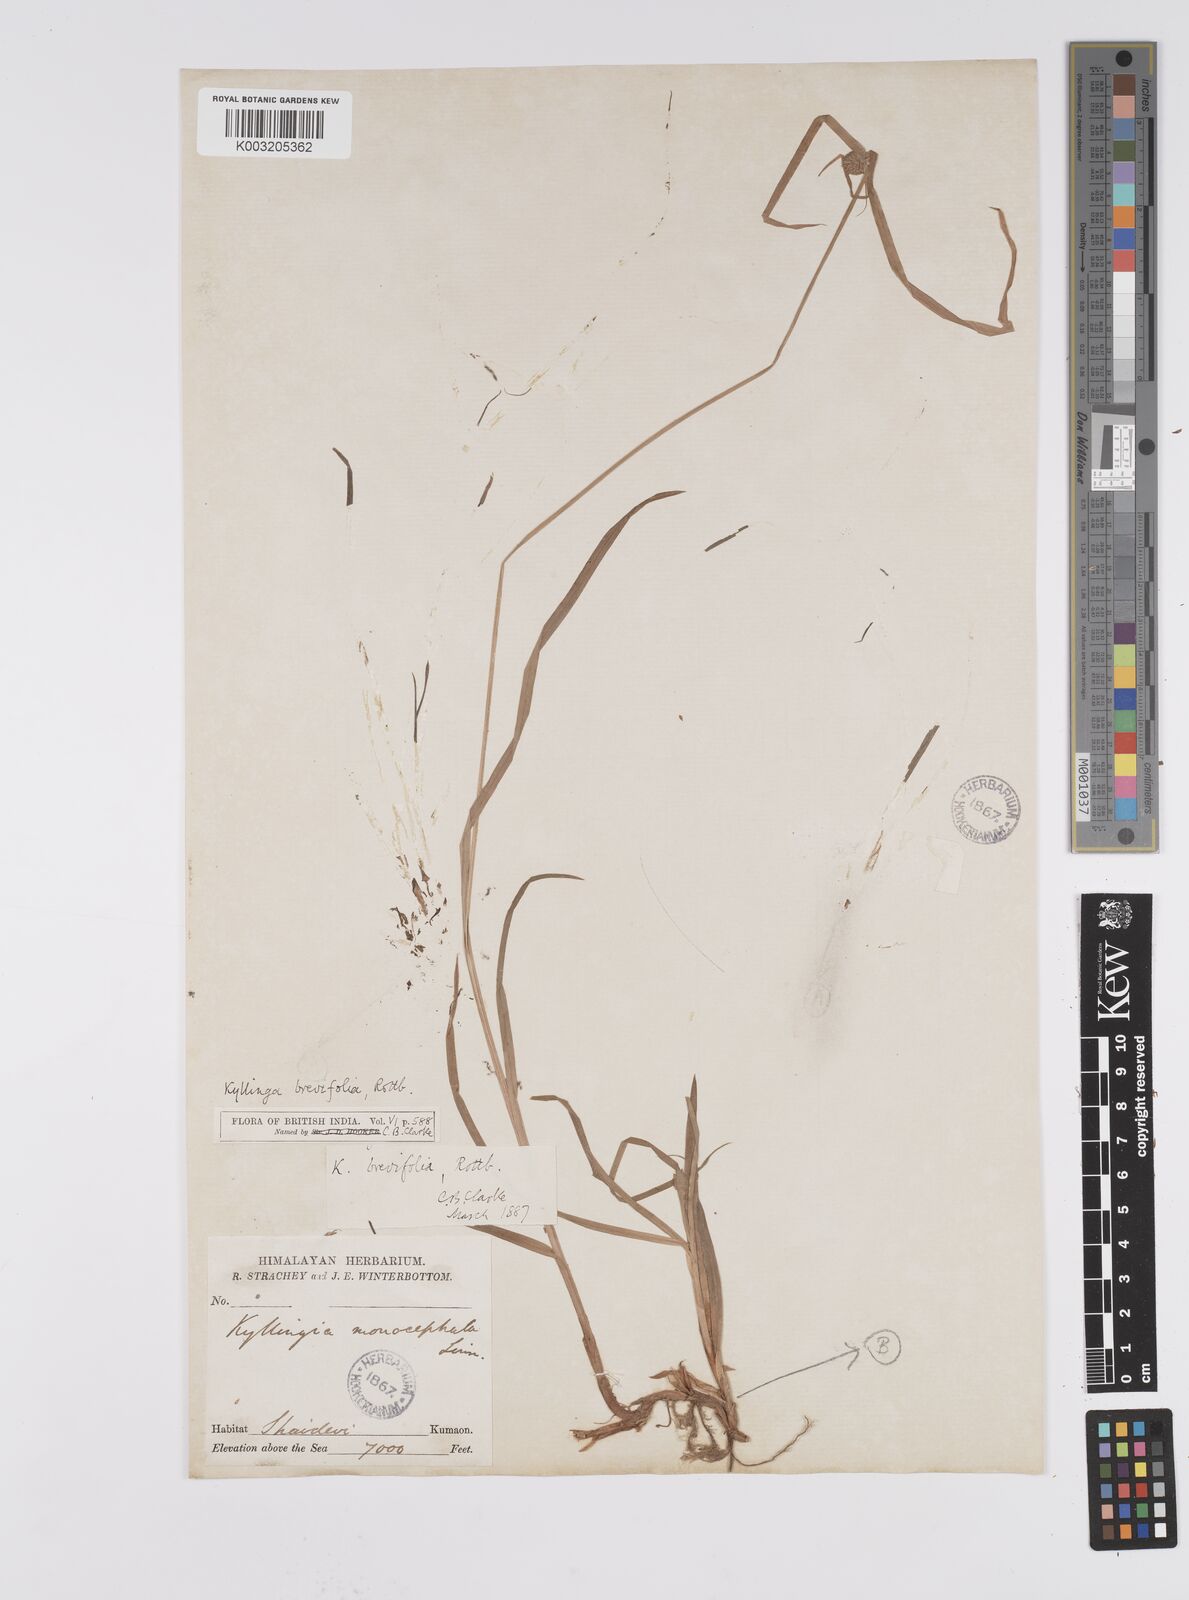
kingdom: Plantae
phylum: Tracheophyta
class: Liliopsida
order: Poales
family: Cyperaceae
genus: Cyperus
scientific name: Cyperus brevifolius
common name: Globe kyllinga
